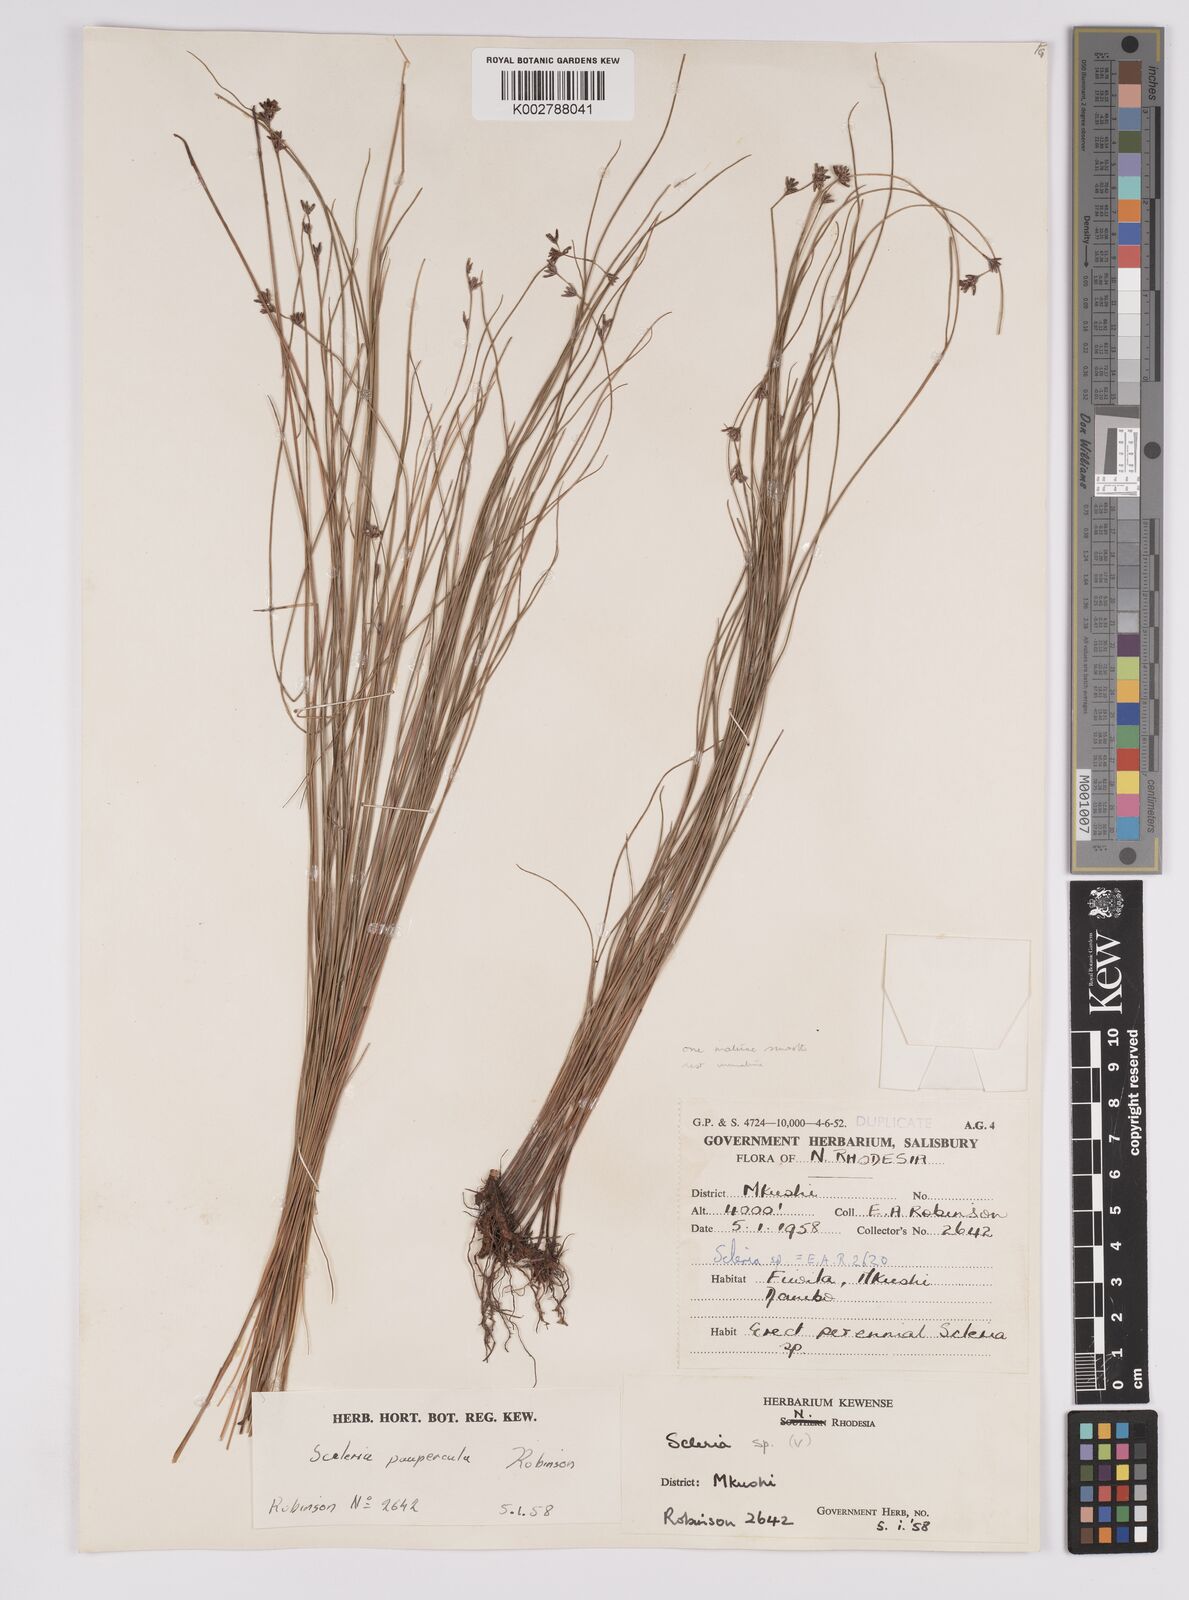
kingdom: Plantae
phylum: Tracheophyta
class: Liliopsida
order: Poales
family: Cyperaceae
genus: Scleria
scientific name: Scleria paupercula
